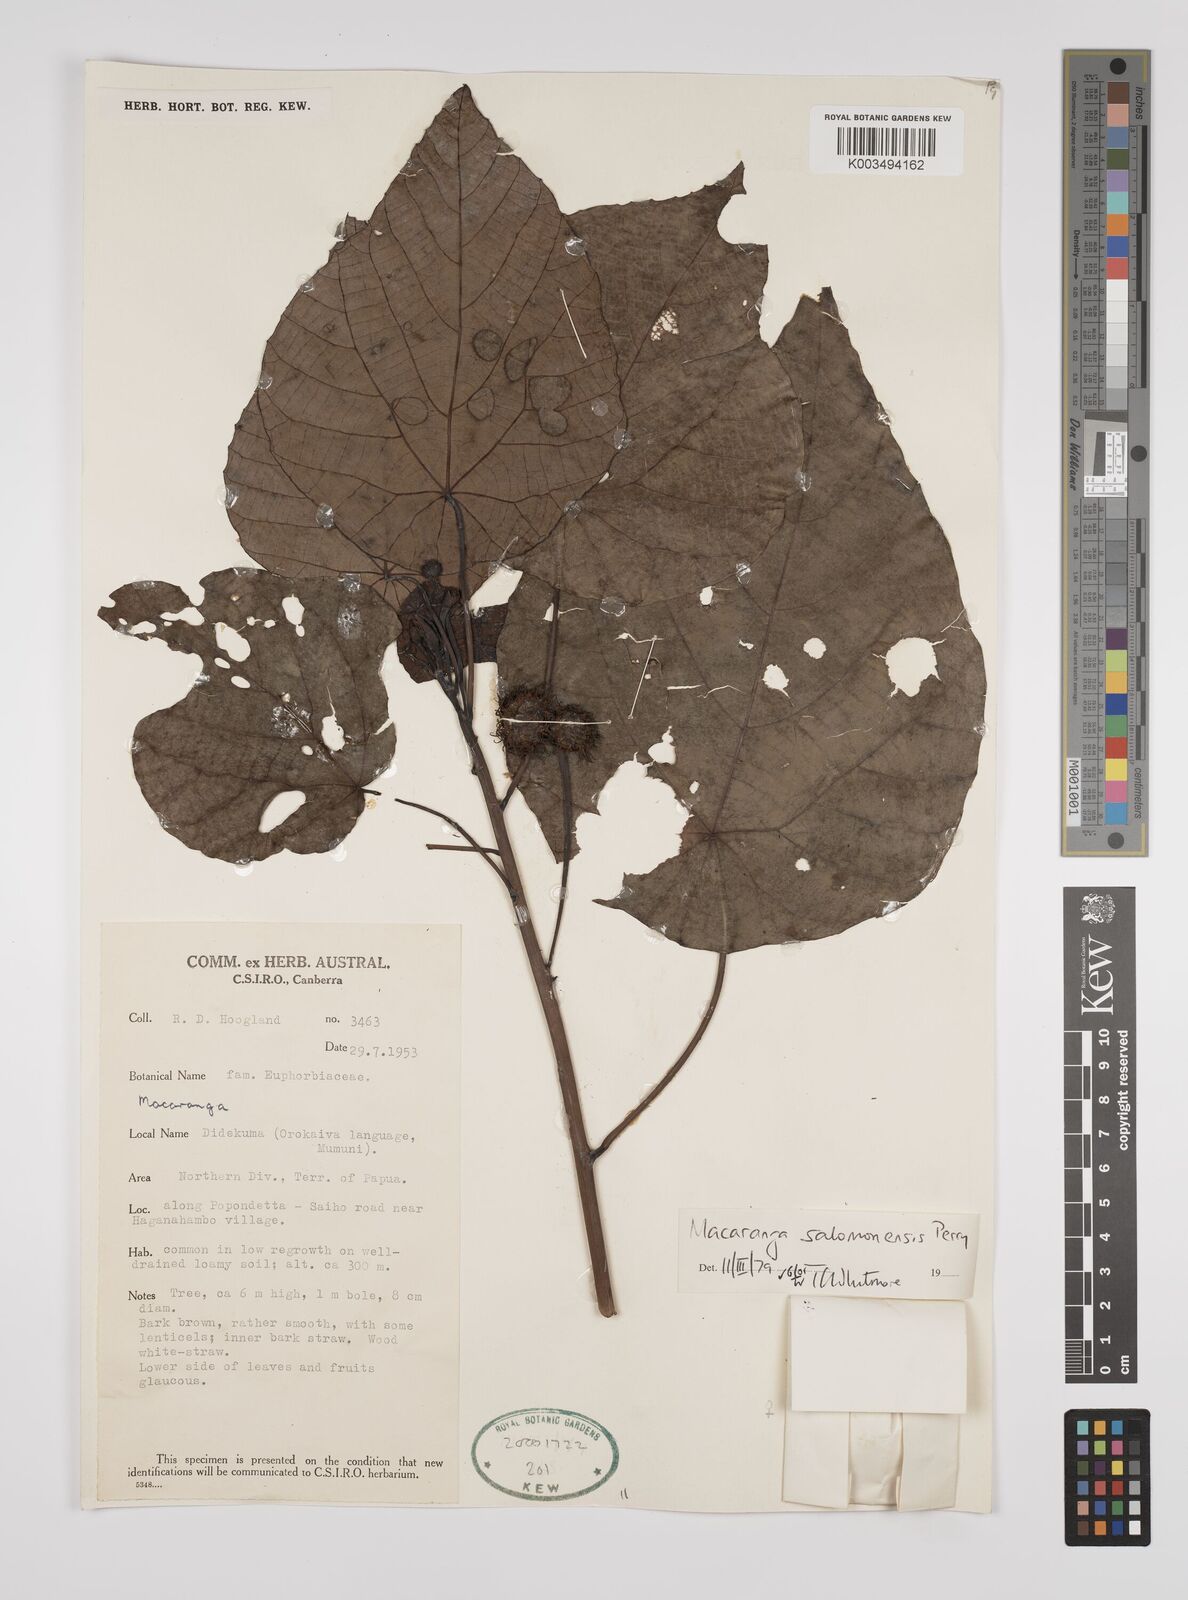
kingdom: Plantae
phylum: Tracheophyta
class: Magnoliopsida
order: Malpighiales
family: Euphorbiaceae
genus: Macaranga
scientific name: Macaranga salomonensis
